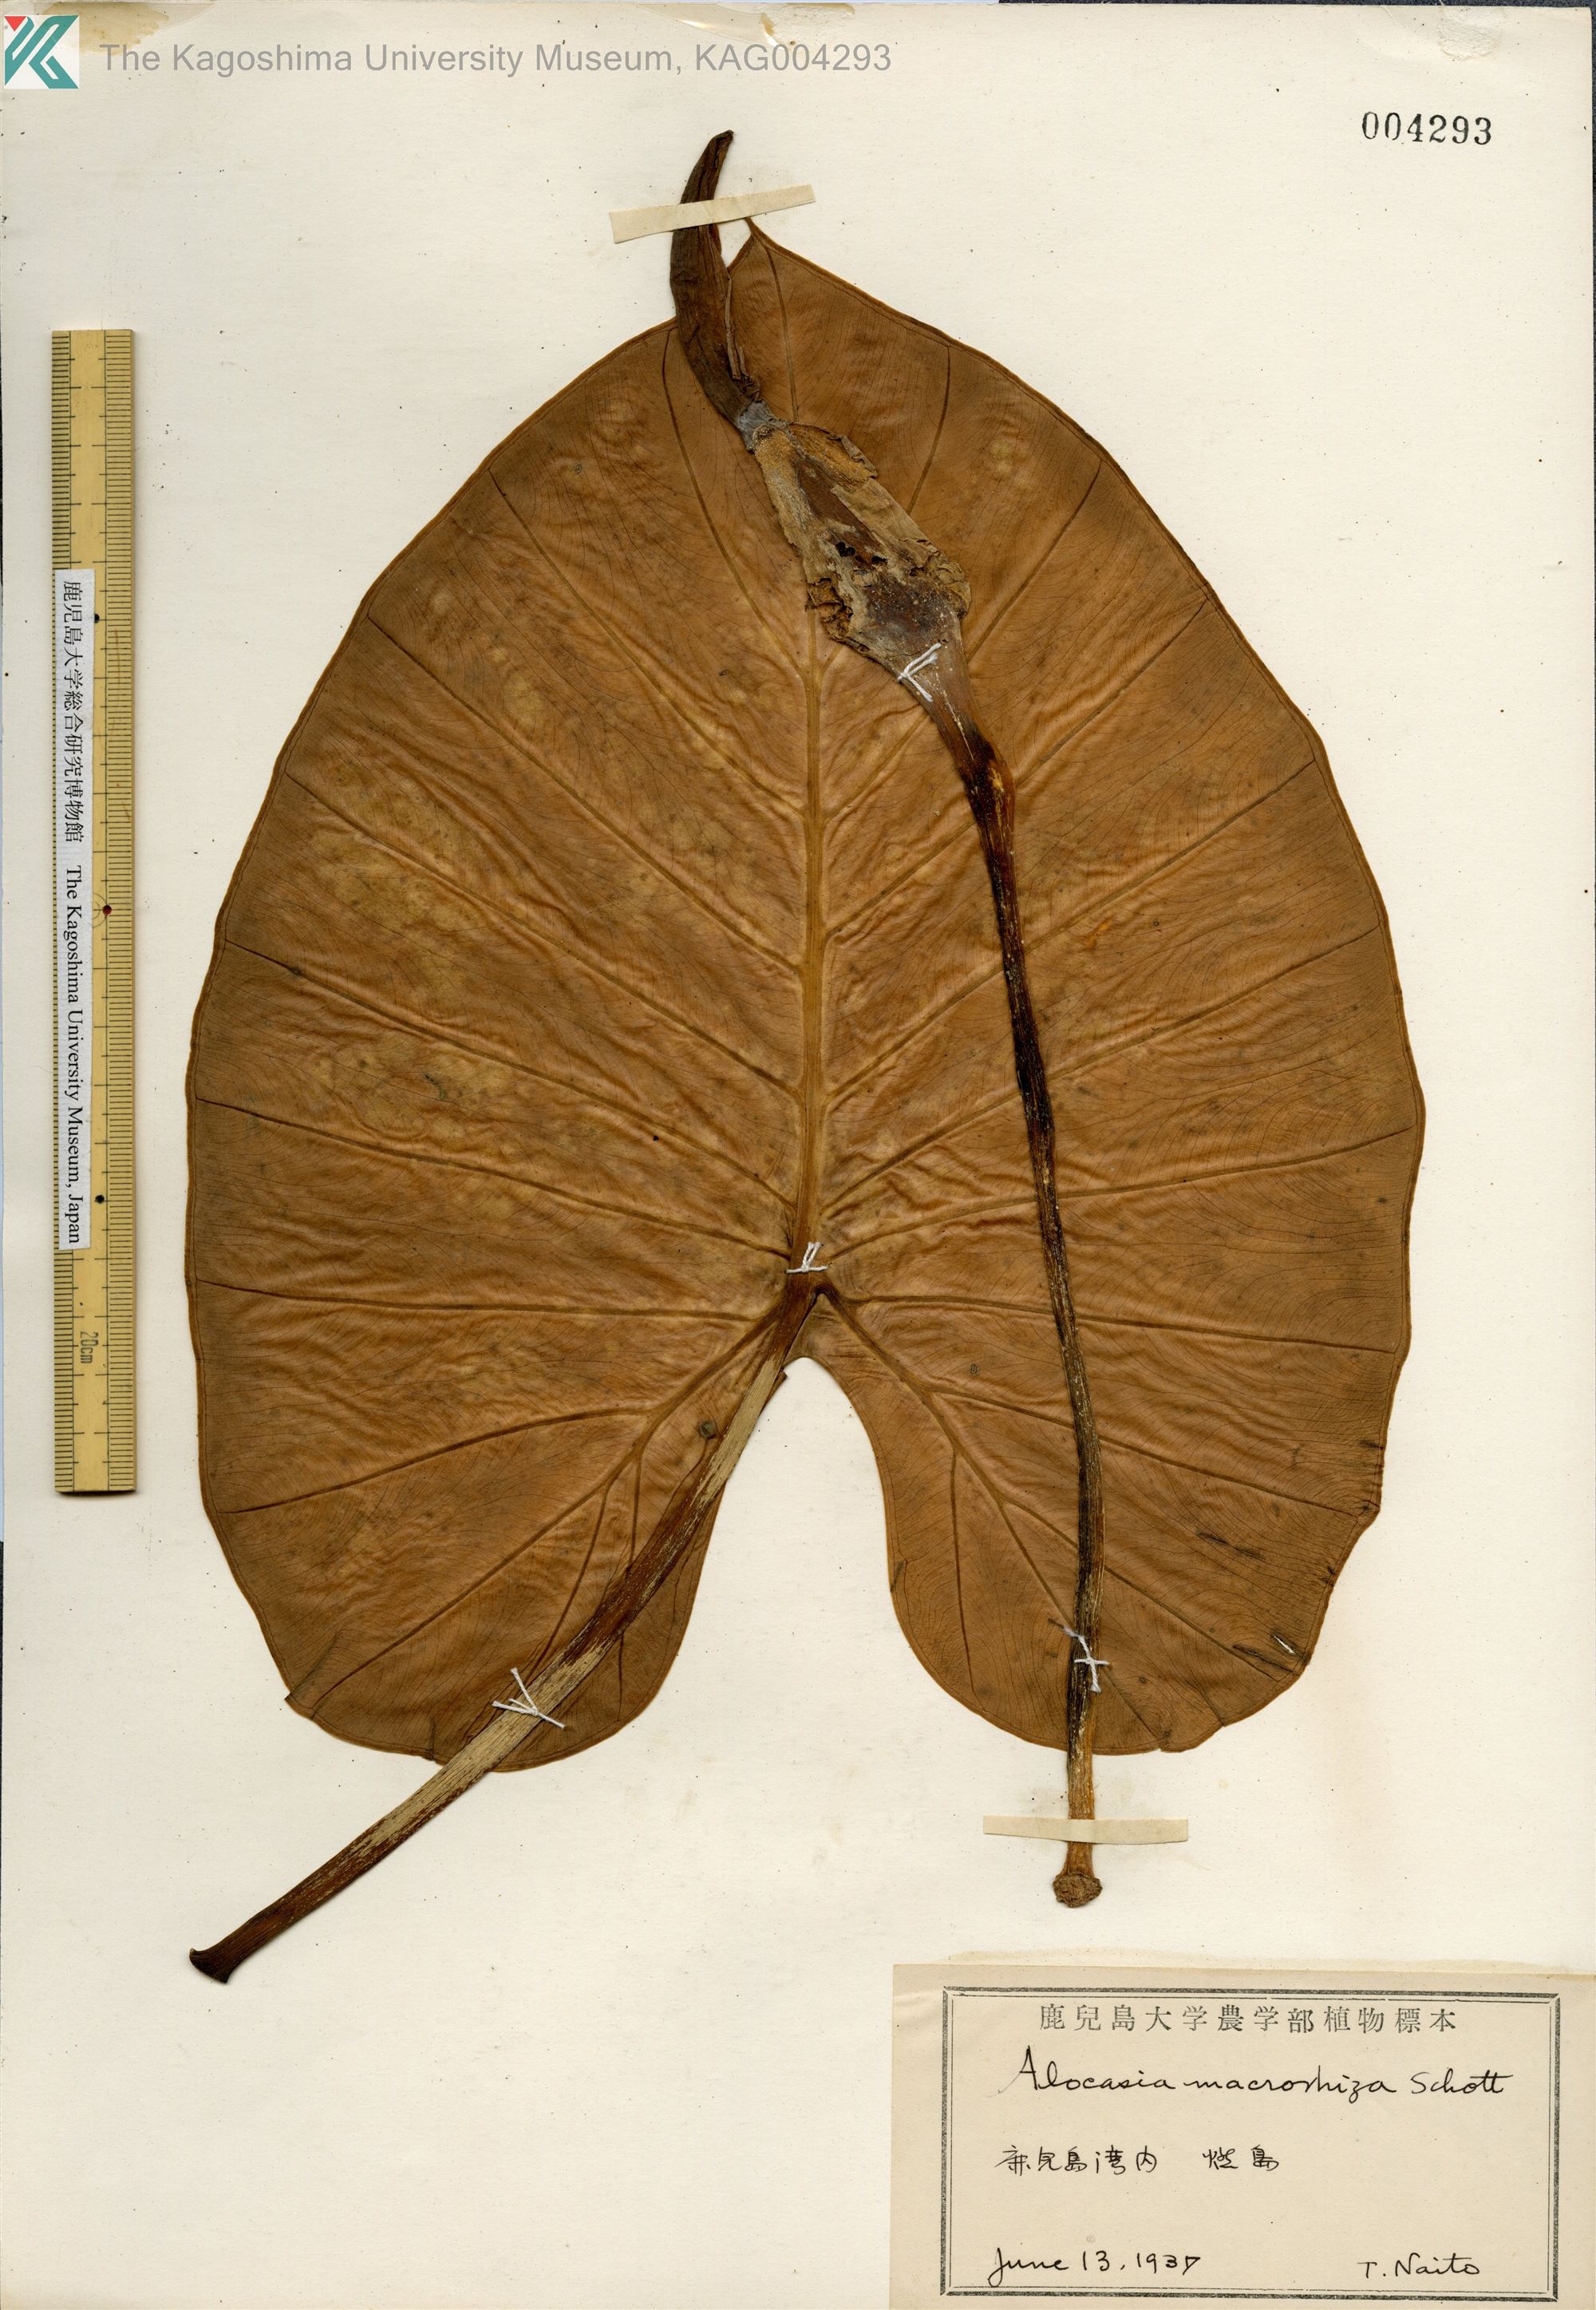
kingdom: Plantae
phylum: Tracheophyta
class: Liliopsida
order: Alismatales
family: Araceae
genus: Alocasia
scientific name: Alocasia odora
